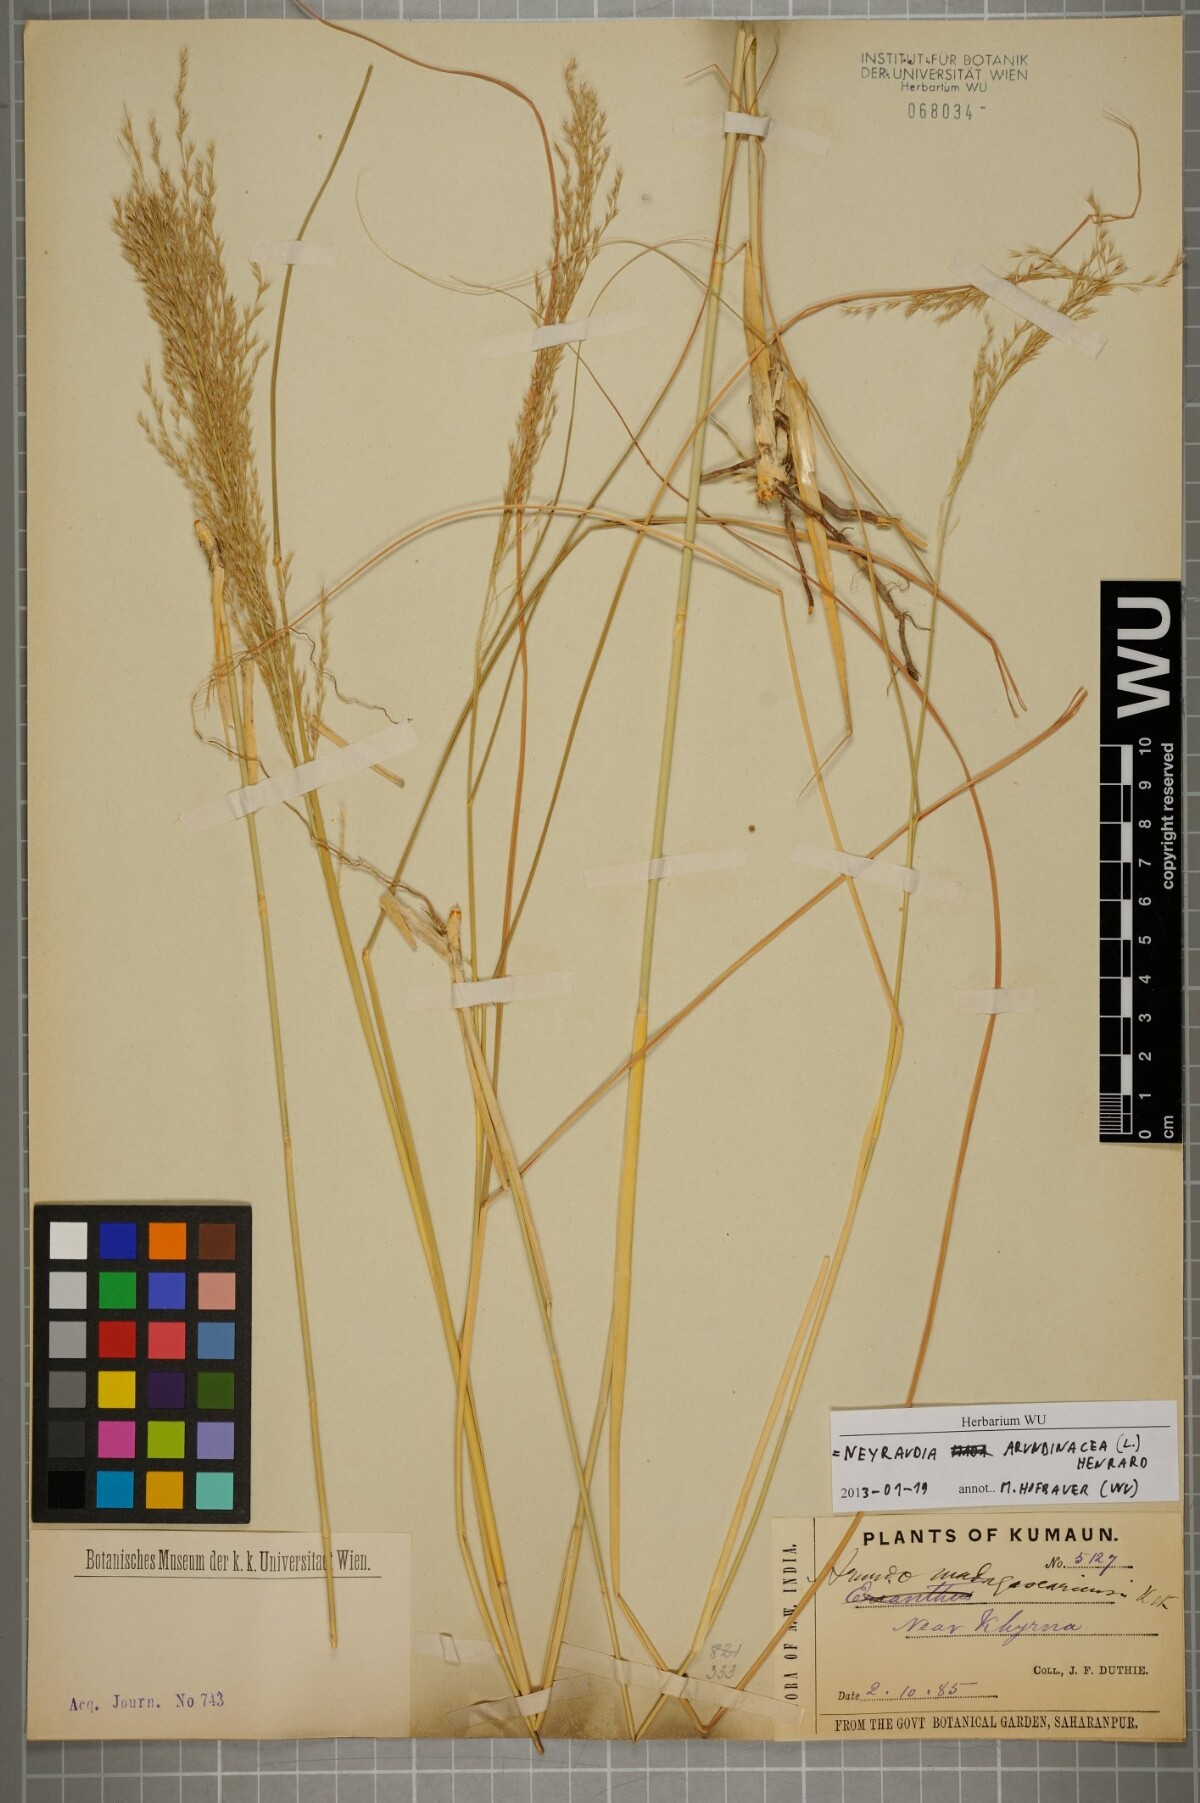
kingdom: Plantae
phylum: Tracheophyta
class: Liliopsida
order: Poales
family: Poaceae
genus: Neyraudia
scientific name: Neyraudia arundinacea
